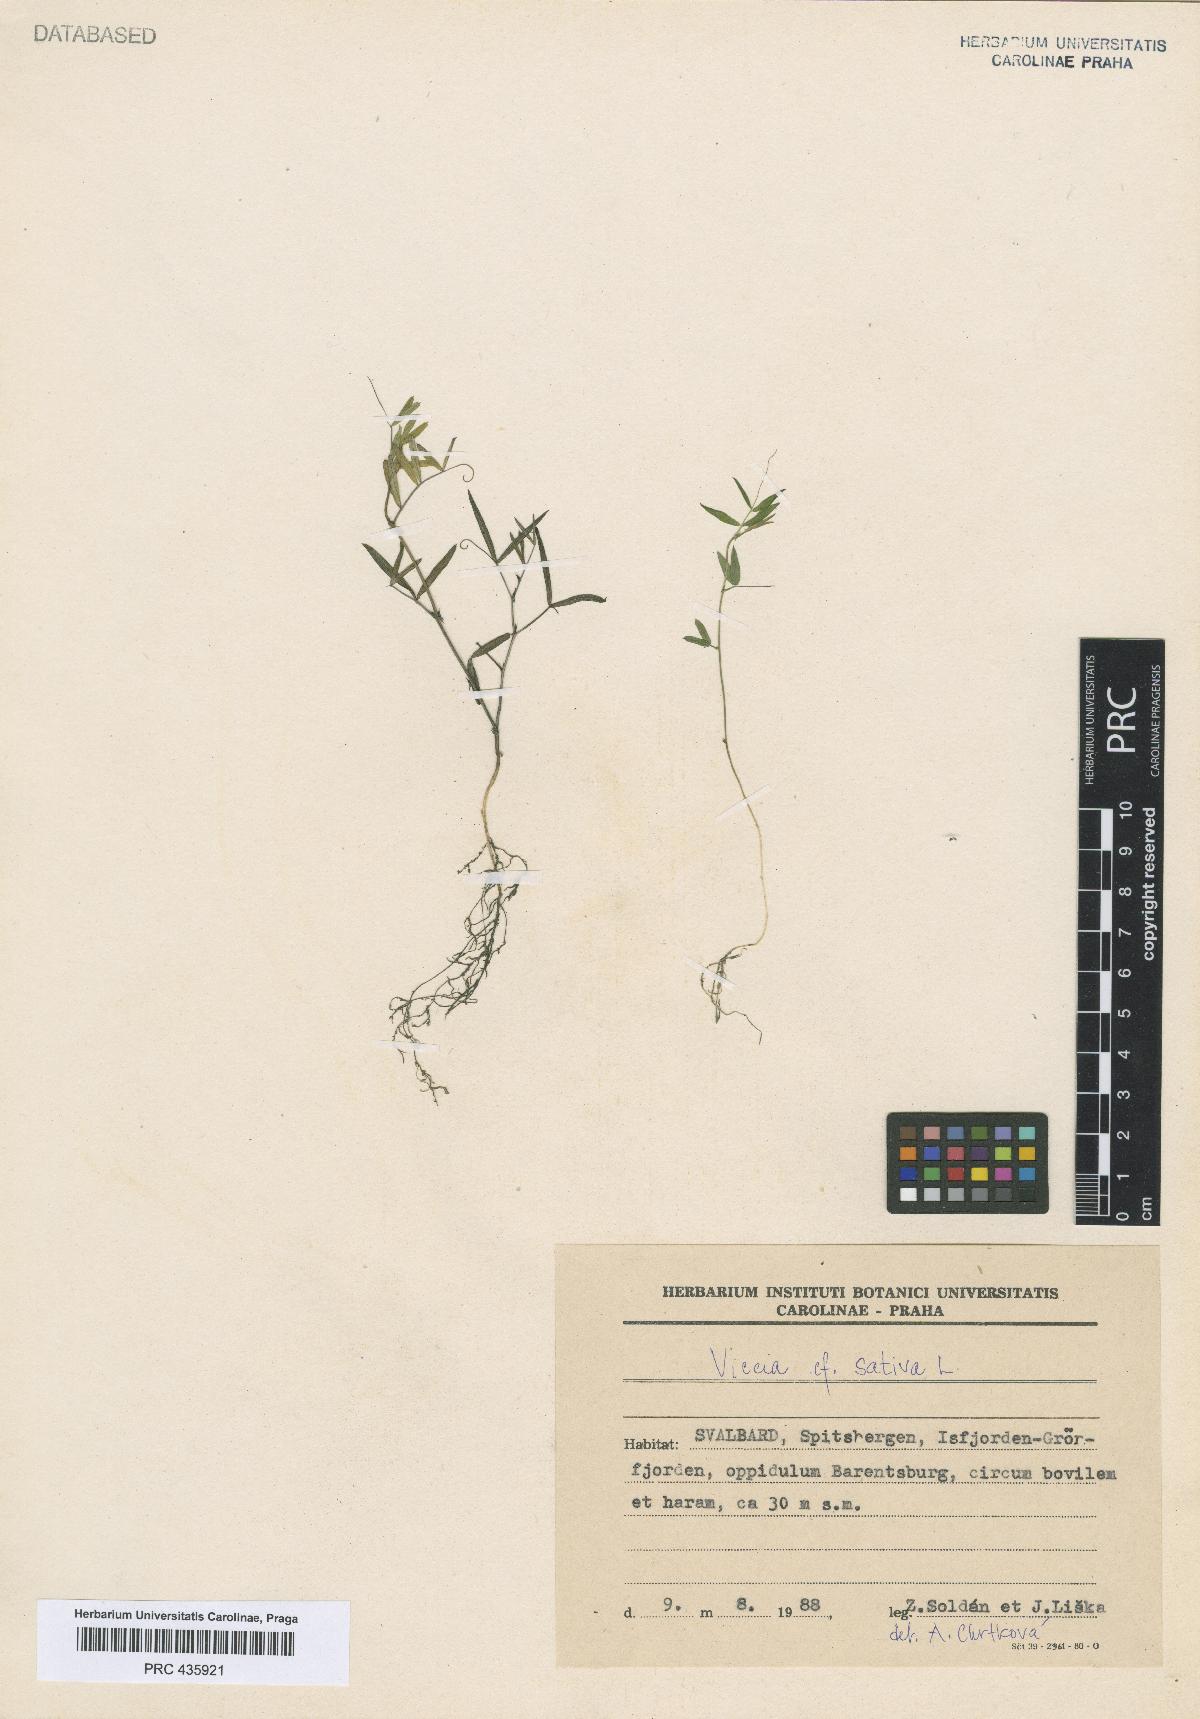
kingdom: Plantae
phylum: Tracheophyta
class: Magnoliopsida
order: Fabales
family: Fabaceae
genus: Vicia
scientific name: Vicia sativa
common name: Garden vetch
